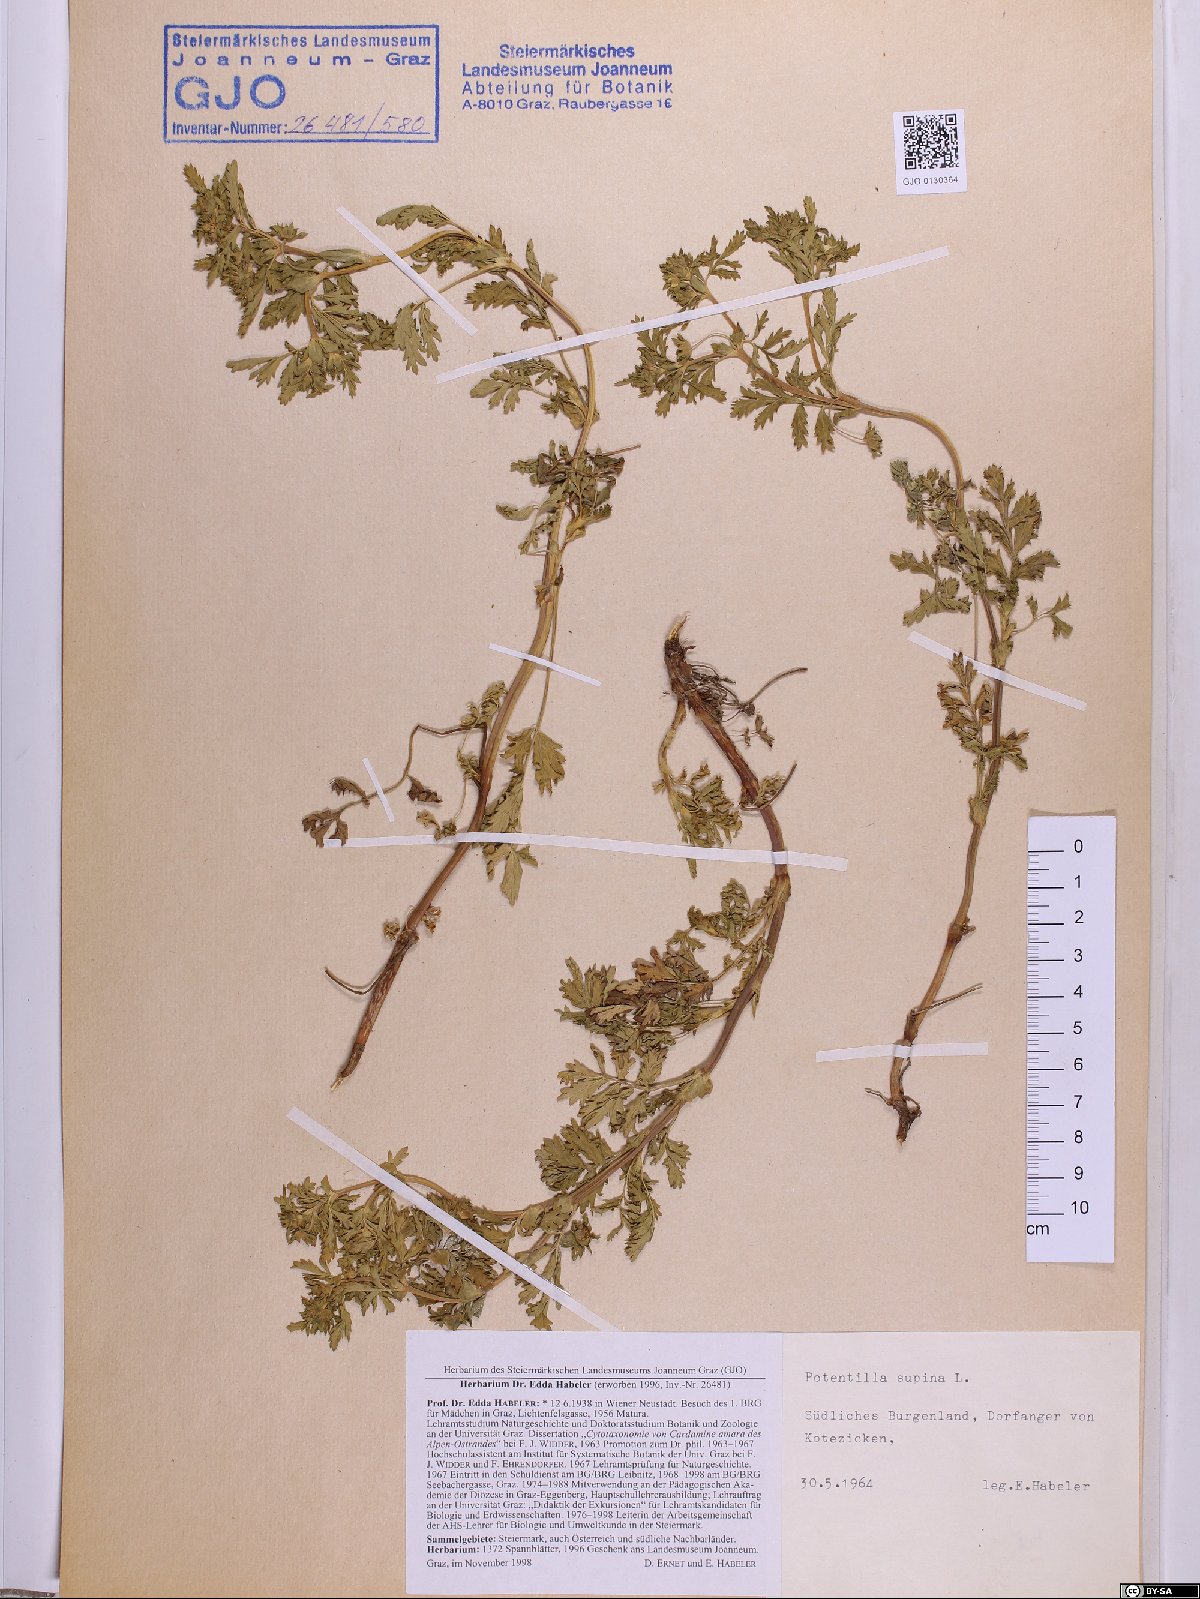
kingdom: Plantae
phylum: Tracheophyta
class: Magnoliopsida
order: Rosales
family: Rosaceae
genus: Potentilla
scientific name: Potentilla supina
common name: Prostrate cinquefoil
